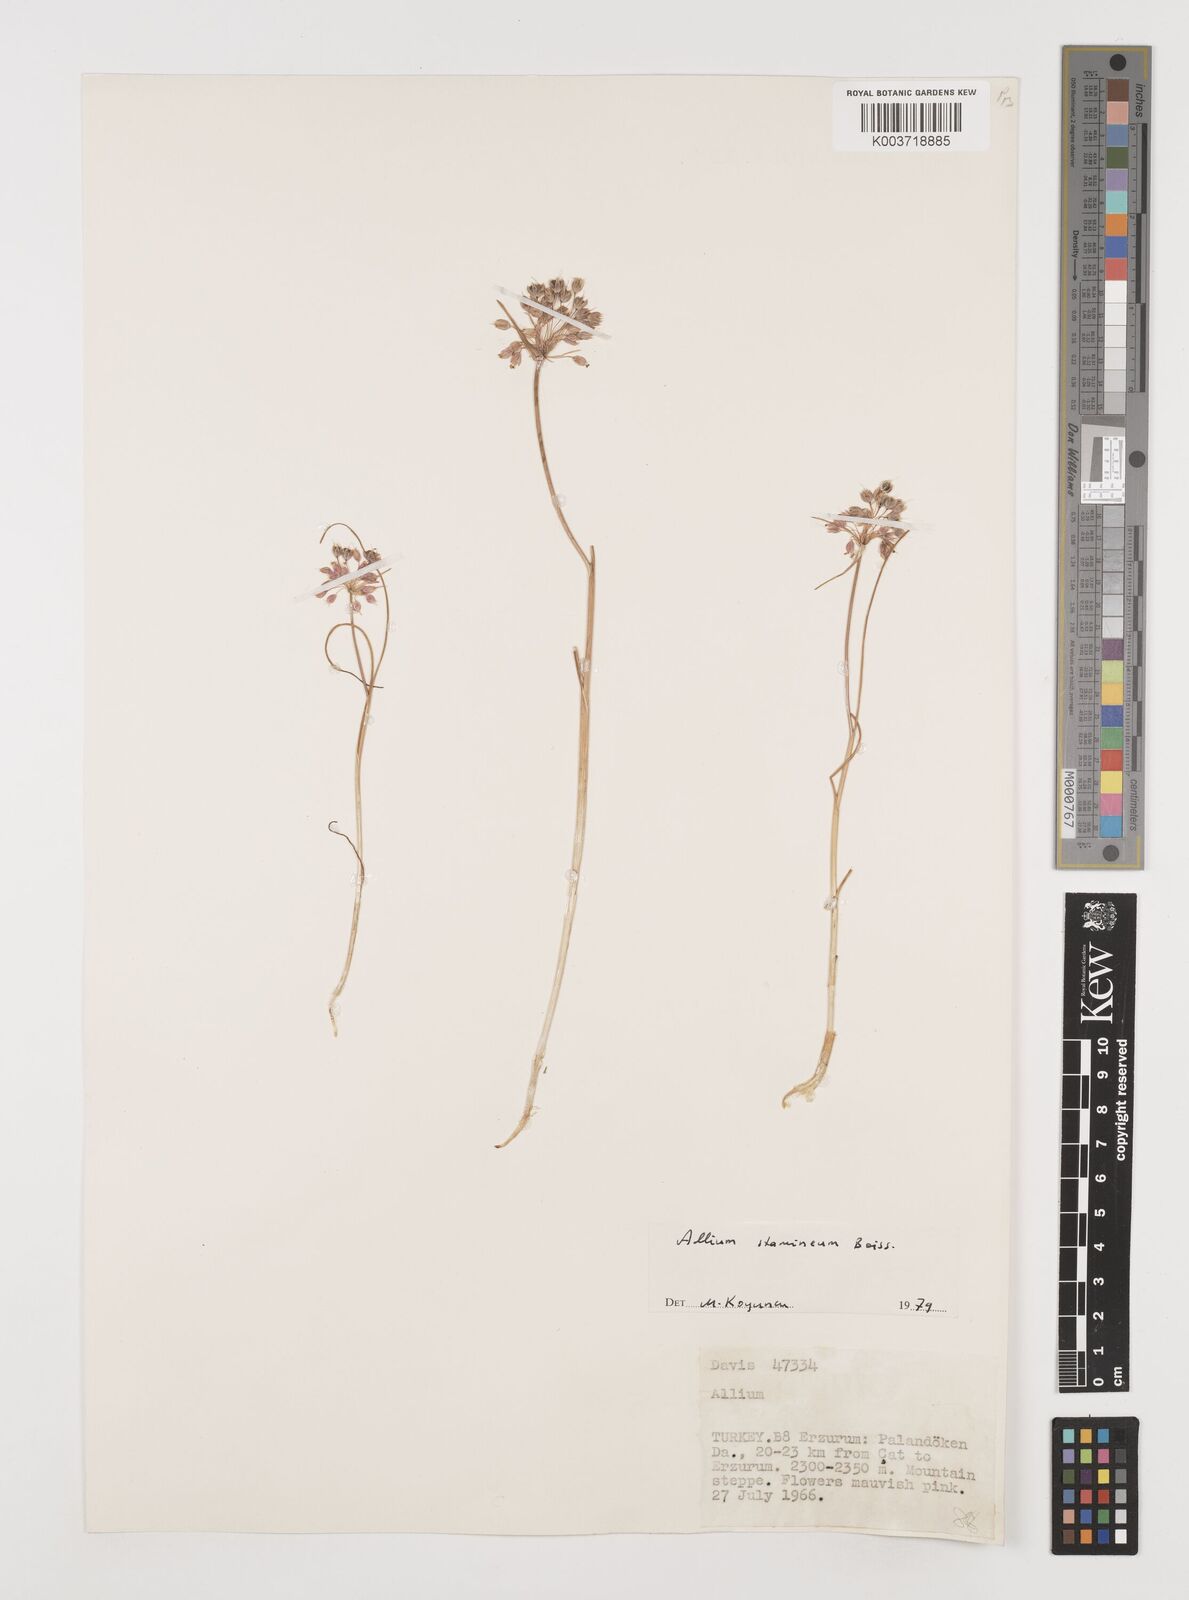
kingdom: Plantae
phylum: Tracheophyta
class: Liliopsida
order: Asparagales
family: Amaryllidaceae
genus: Allium
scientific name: Allium stamineum
